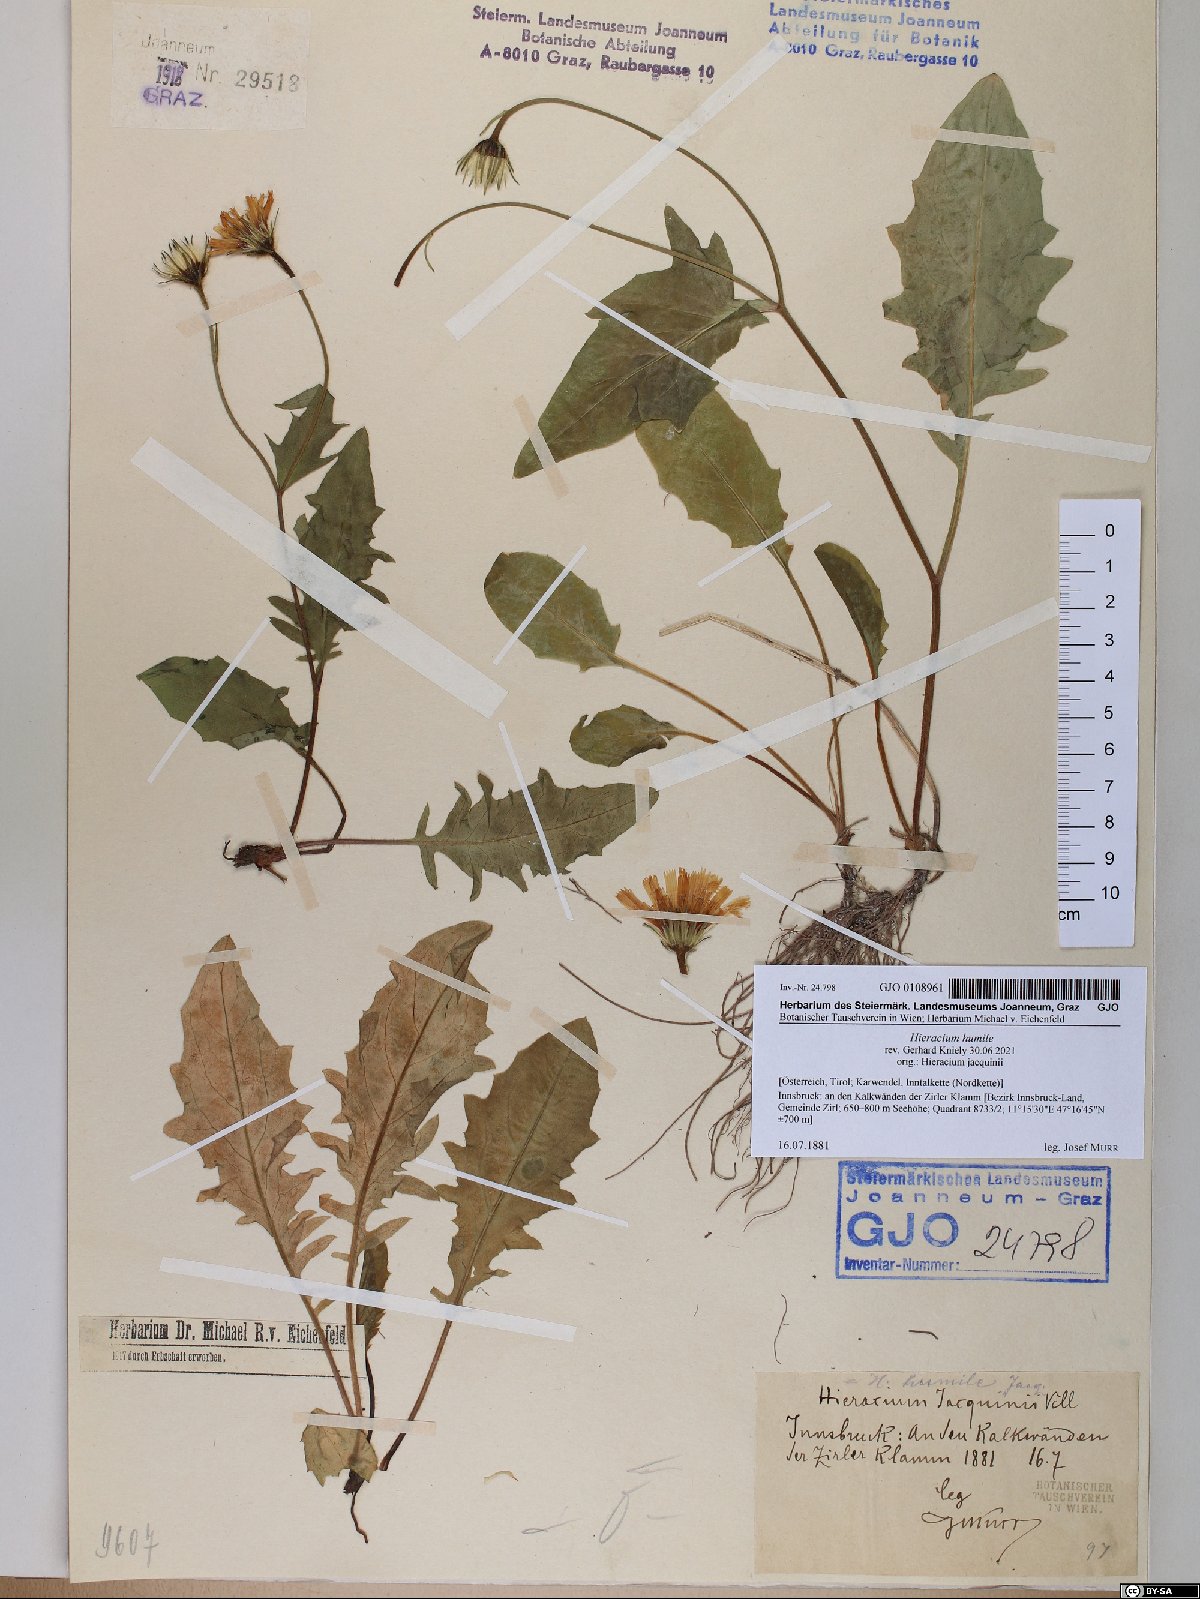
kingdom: Plantae
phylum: Tracheophyta
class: Magnoliopsida
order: Asterales
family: Asteraceae
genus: Hieracium
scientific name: Hieracium humile
